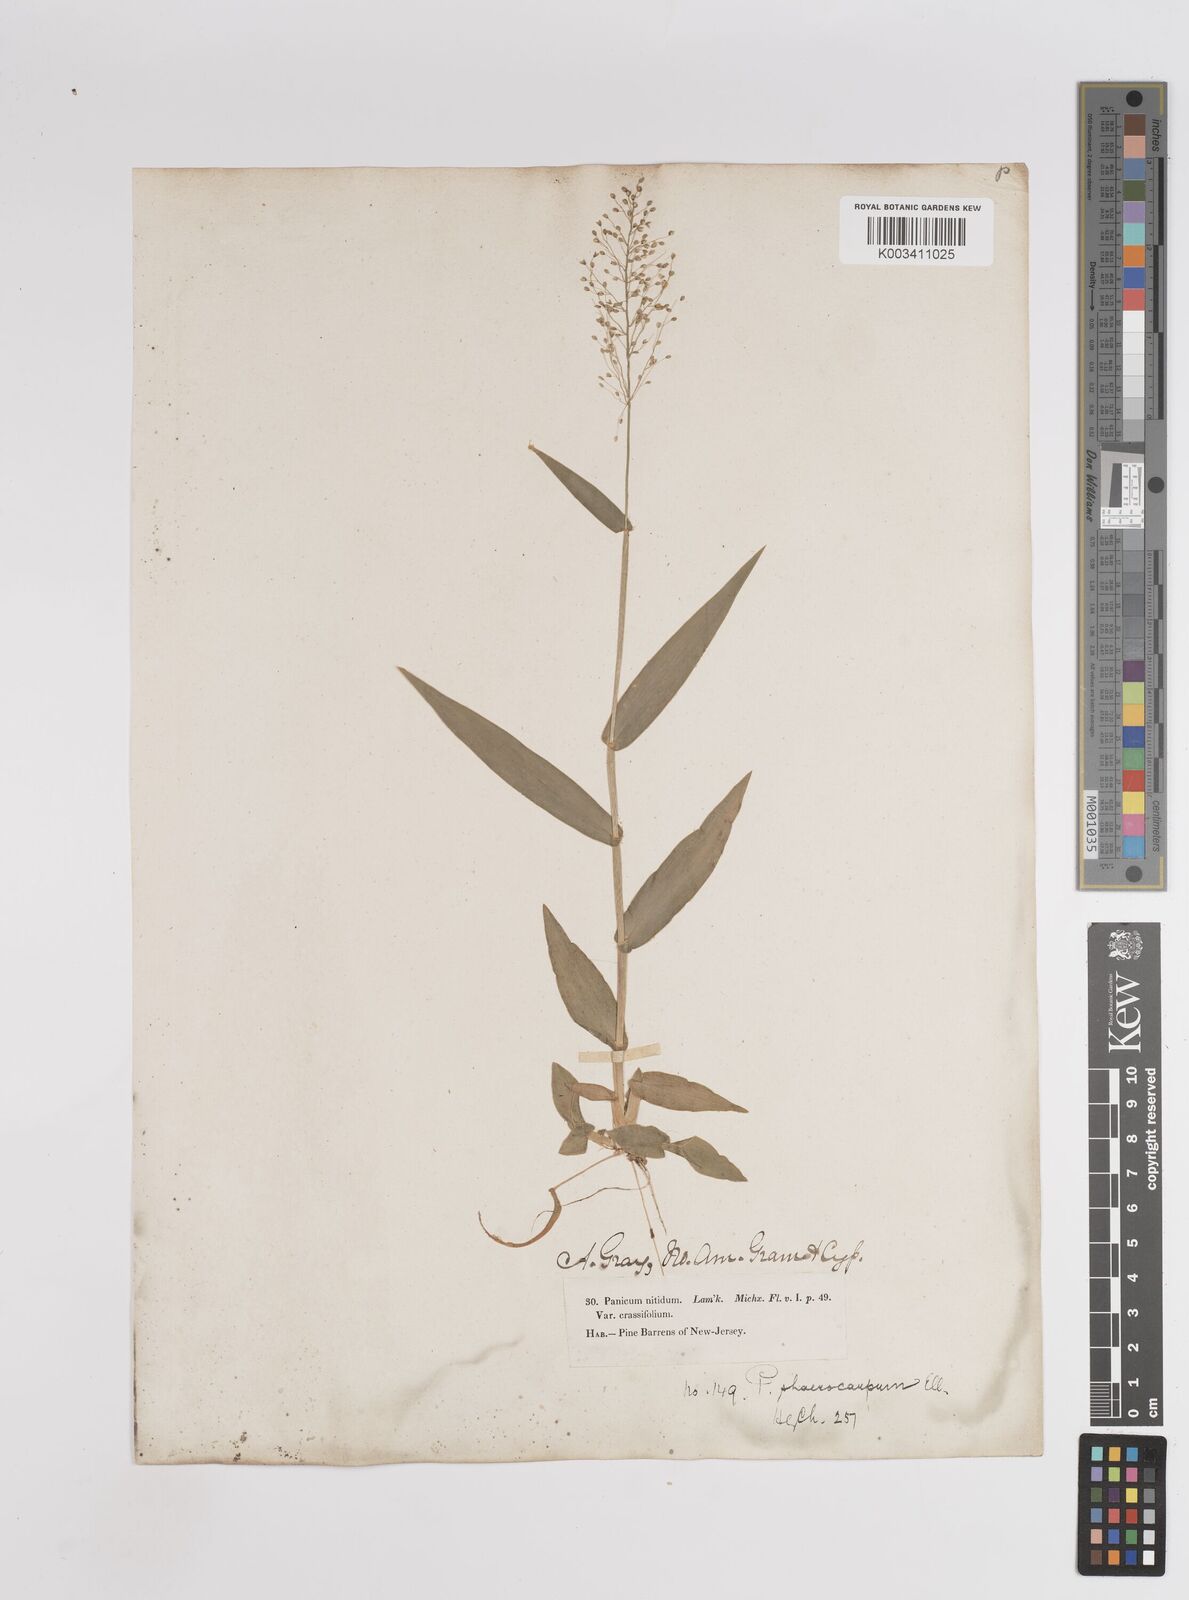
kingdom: Plantae
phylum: Tracheophyta
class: Liliopsida
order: Poales
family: Poaceae
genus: Setaria
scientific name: Setaria tenax
